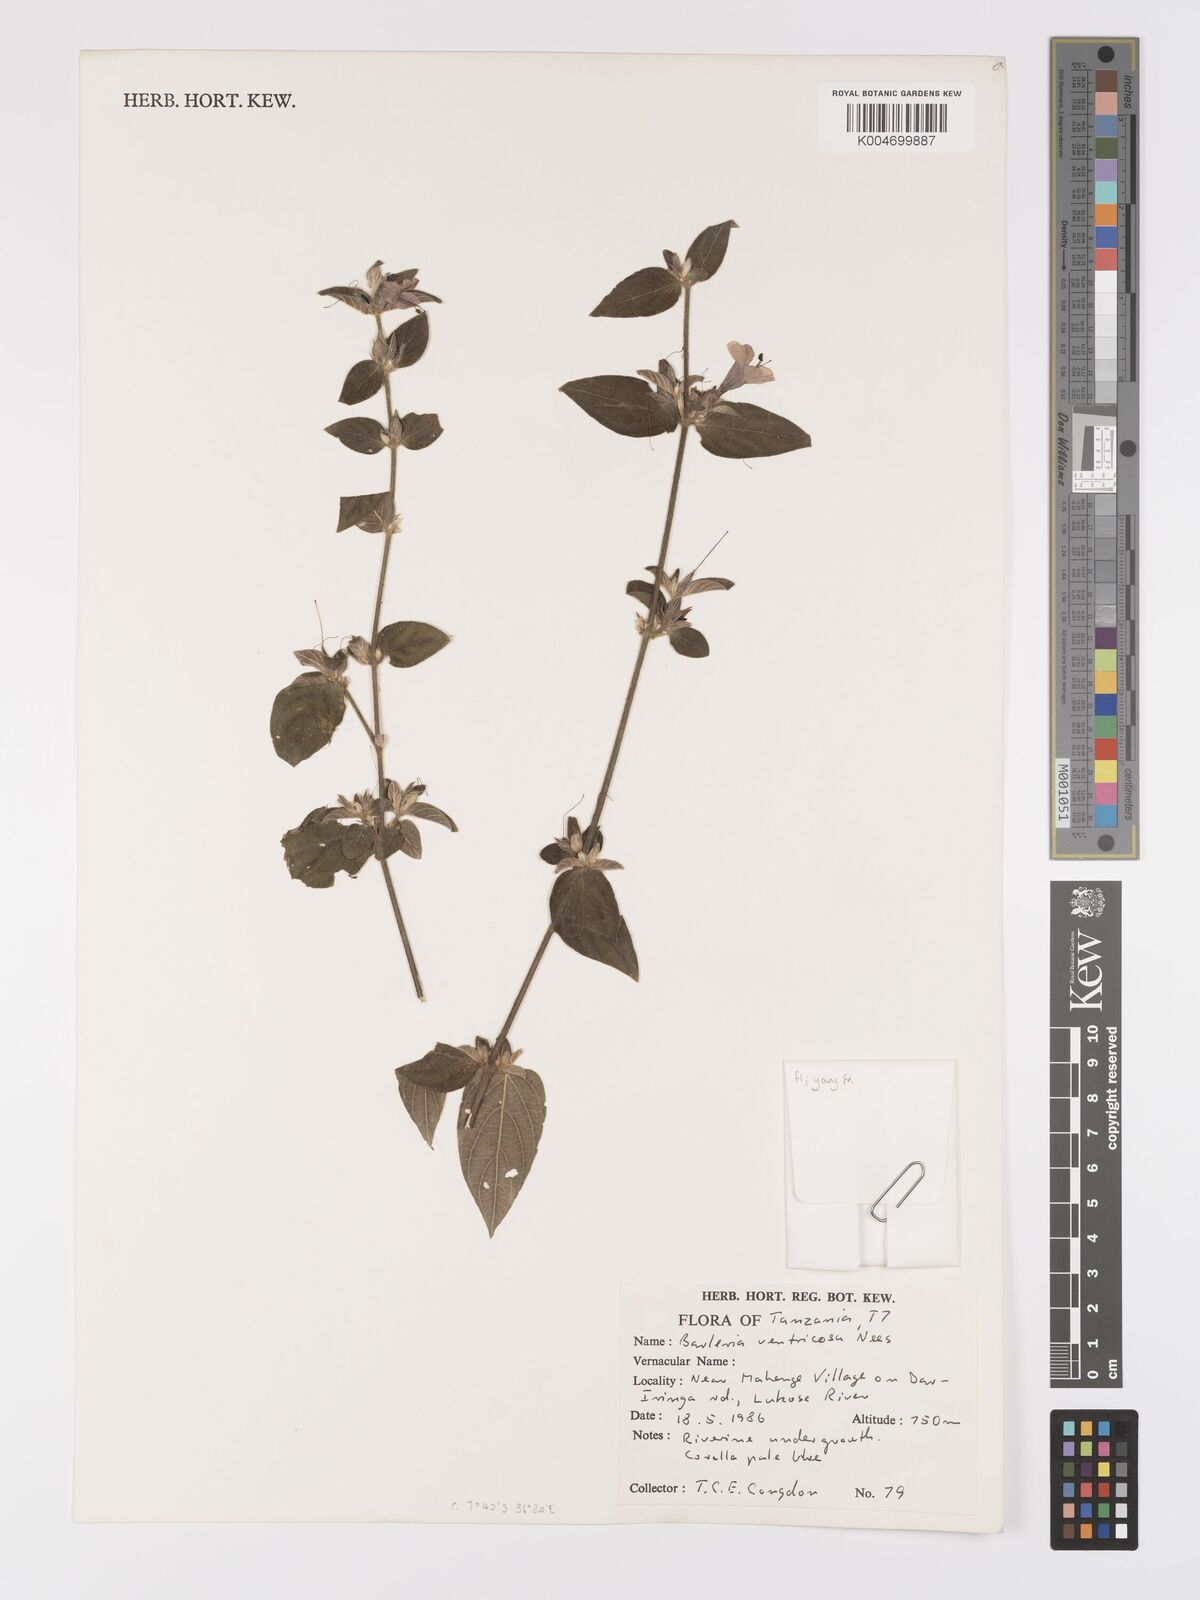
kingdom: Plantae
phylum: Tracheophyta
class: Magnoliopsida
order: Lamiales
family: Acanthaceae
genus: Barleria
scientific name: Barleria ventricosa
